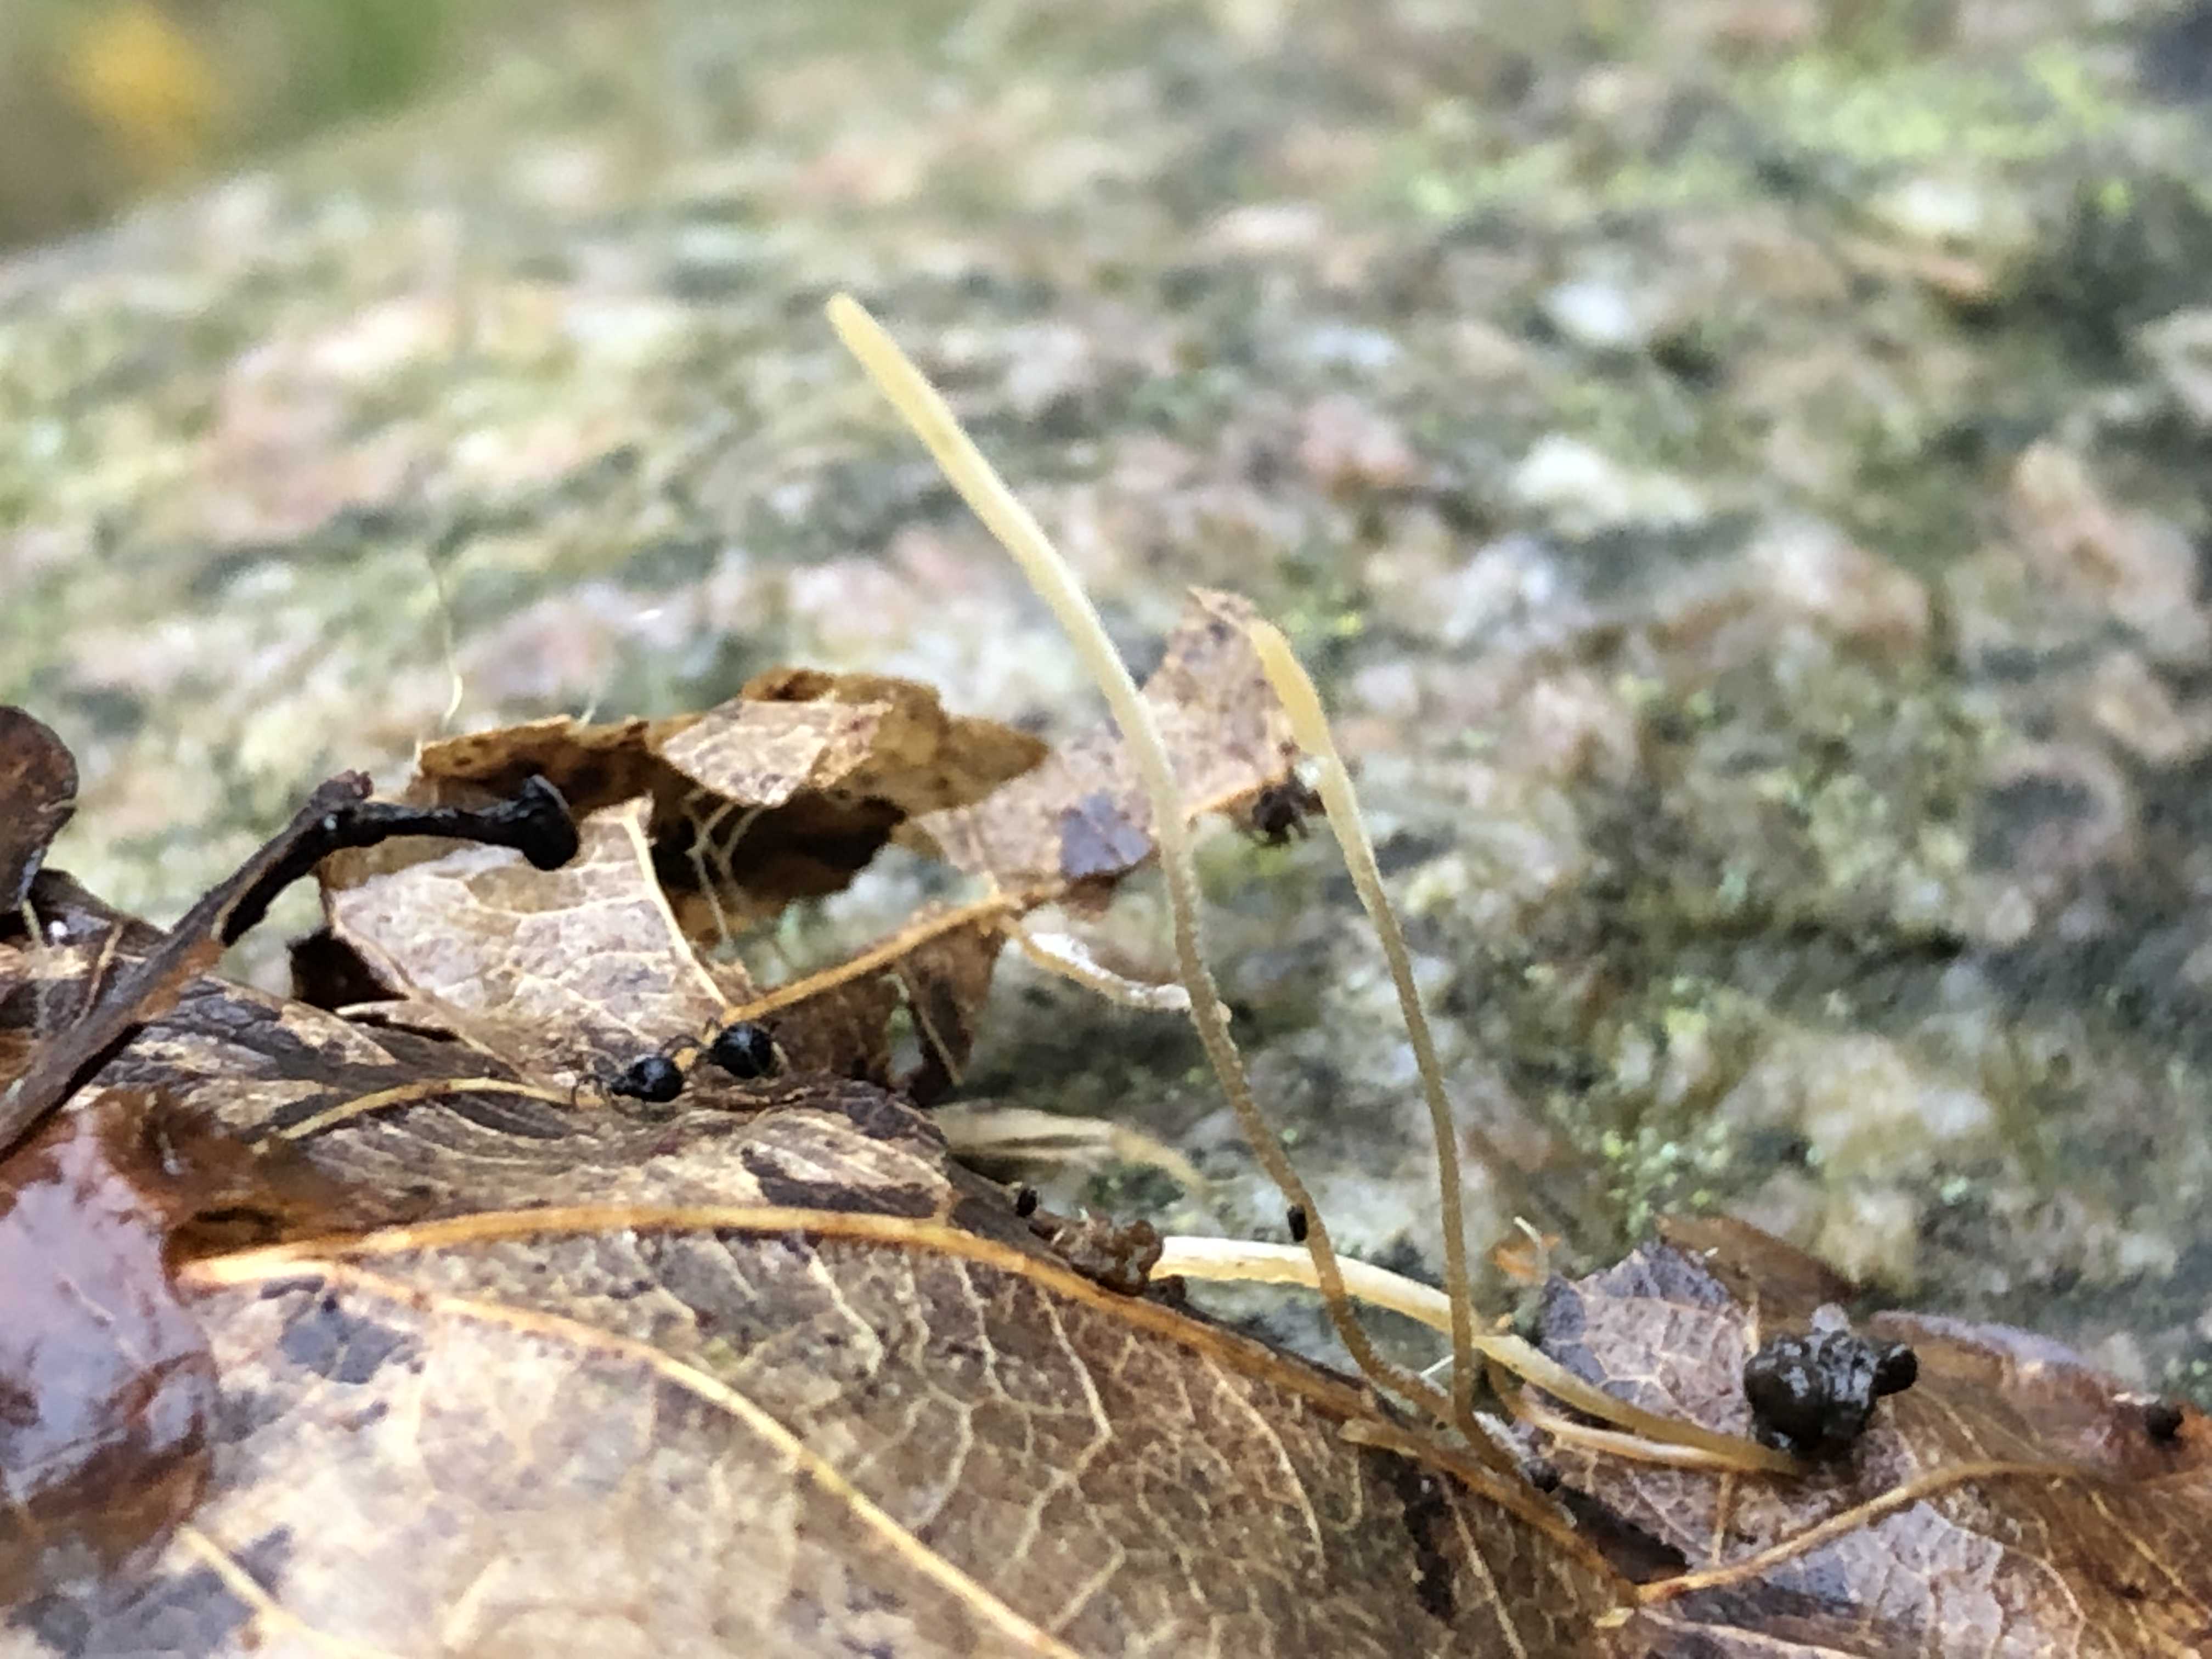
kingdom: Fungi
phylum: Basidiomycota
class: Agaricomycetes
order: Agaricales
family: Typhulaceae
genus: Typhula
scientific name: Typhula juncea
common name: trådagtig rørkølle
